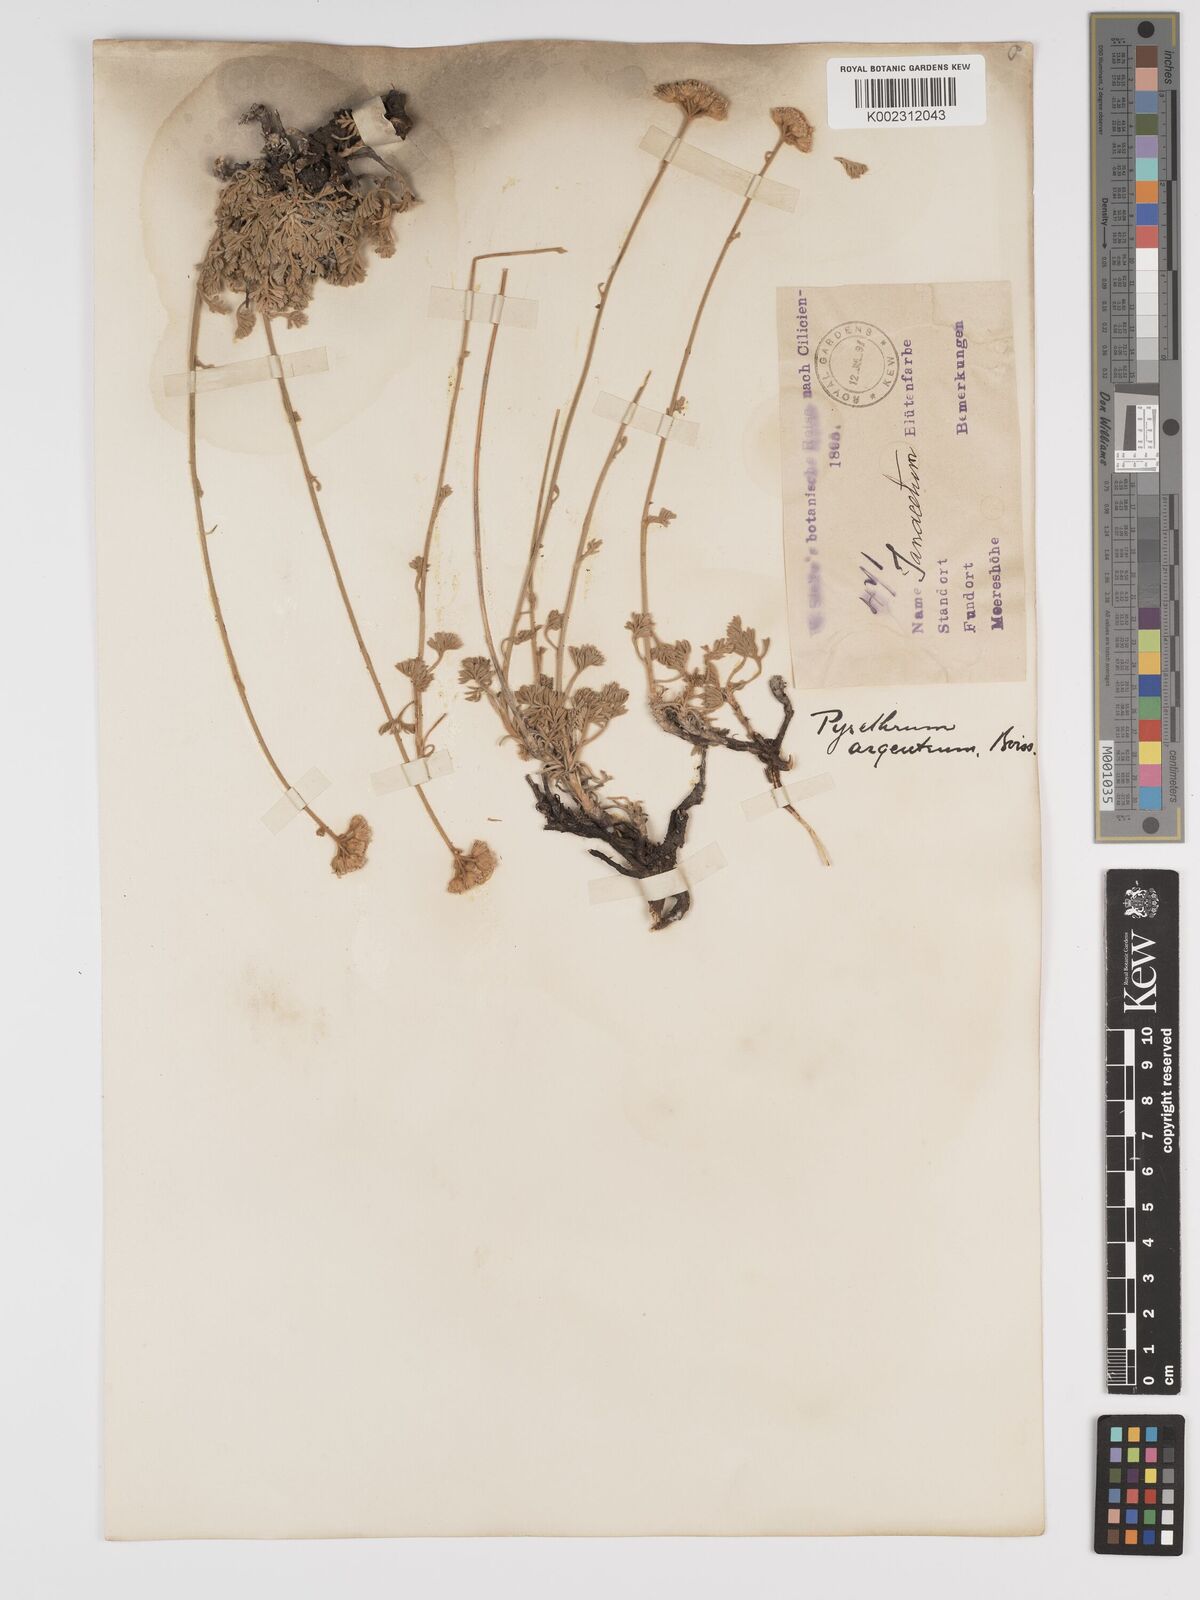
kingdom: Plantae
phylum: Tracheophyta
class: Magnoliopsida
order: Asterales
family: Asteraceae
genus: Tanacetum
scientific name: Tanacetum argenteum
